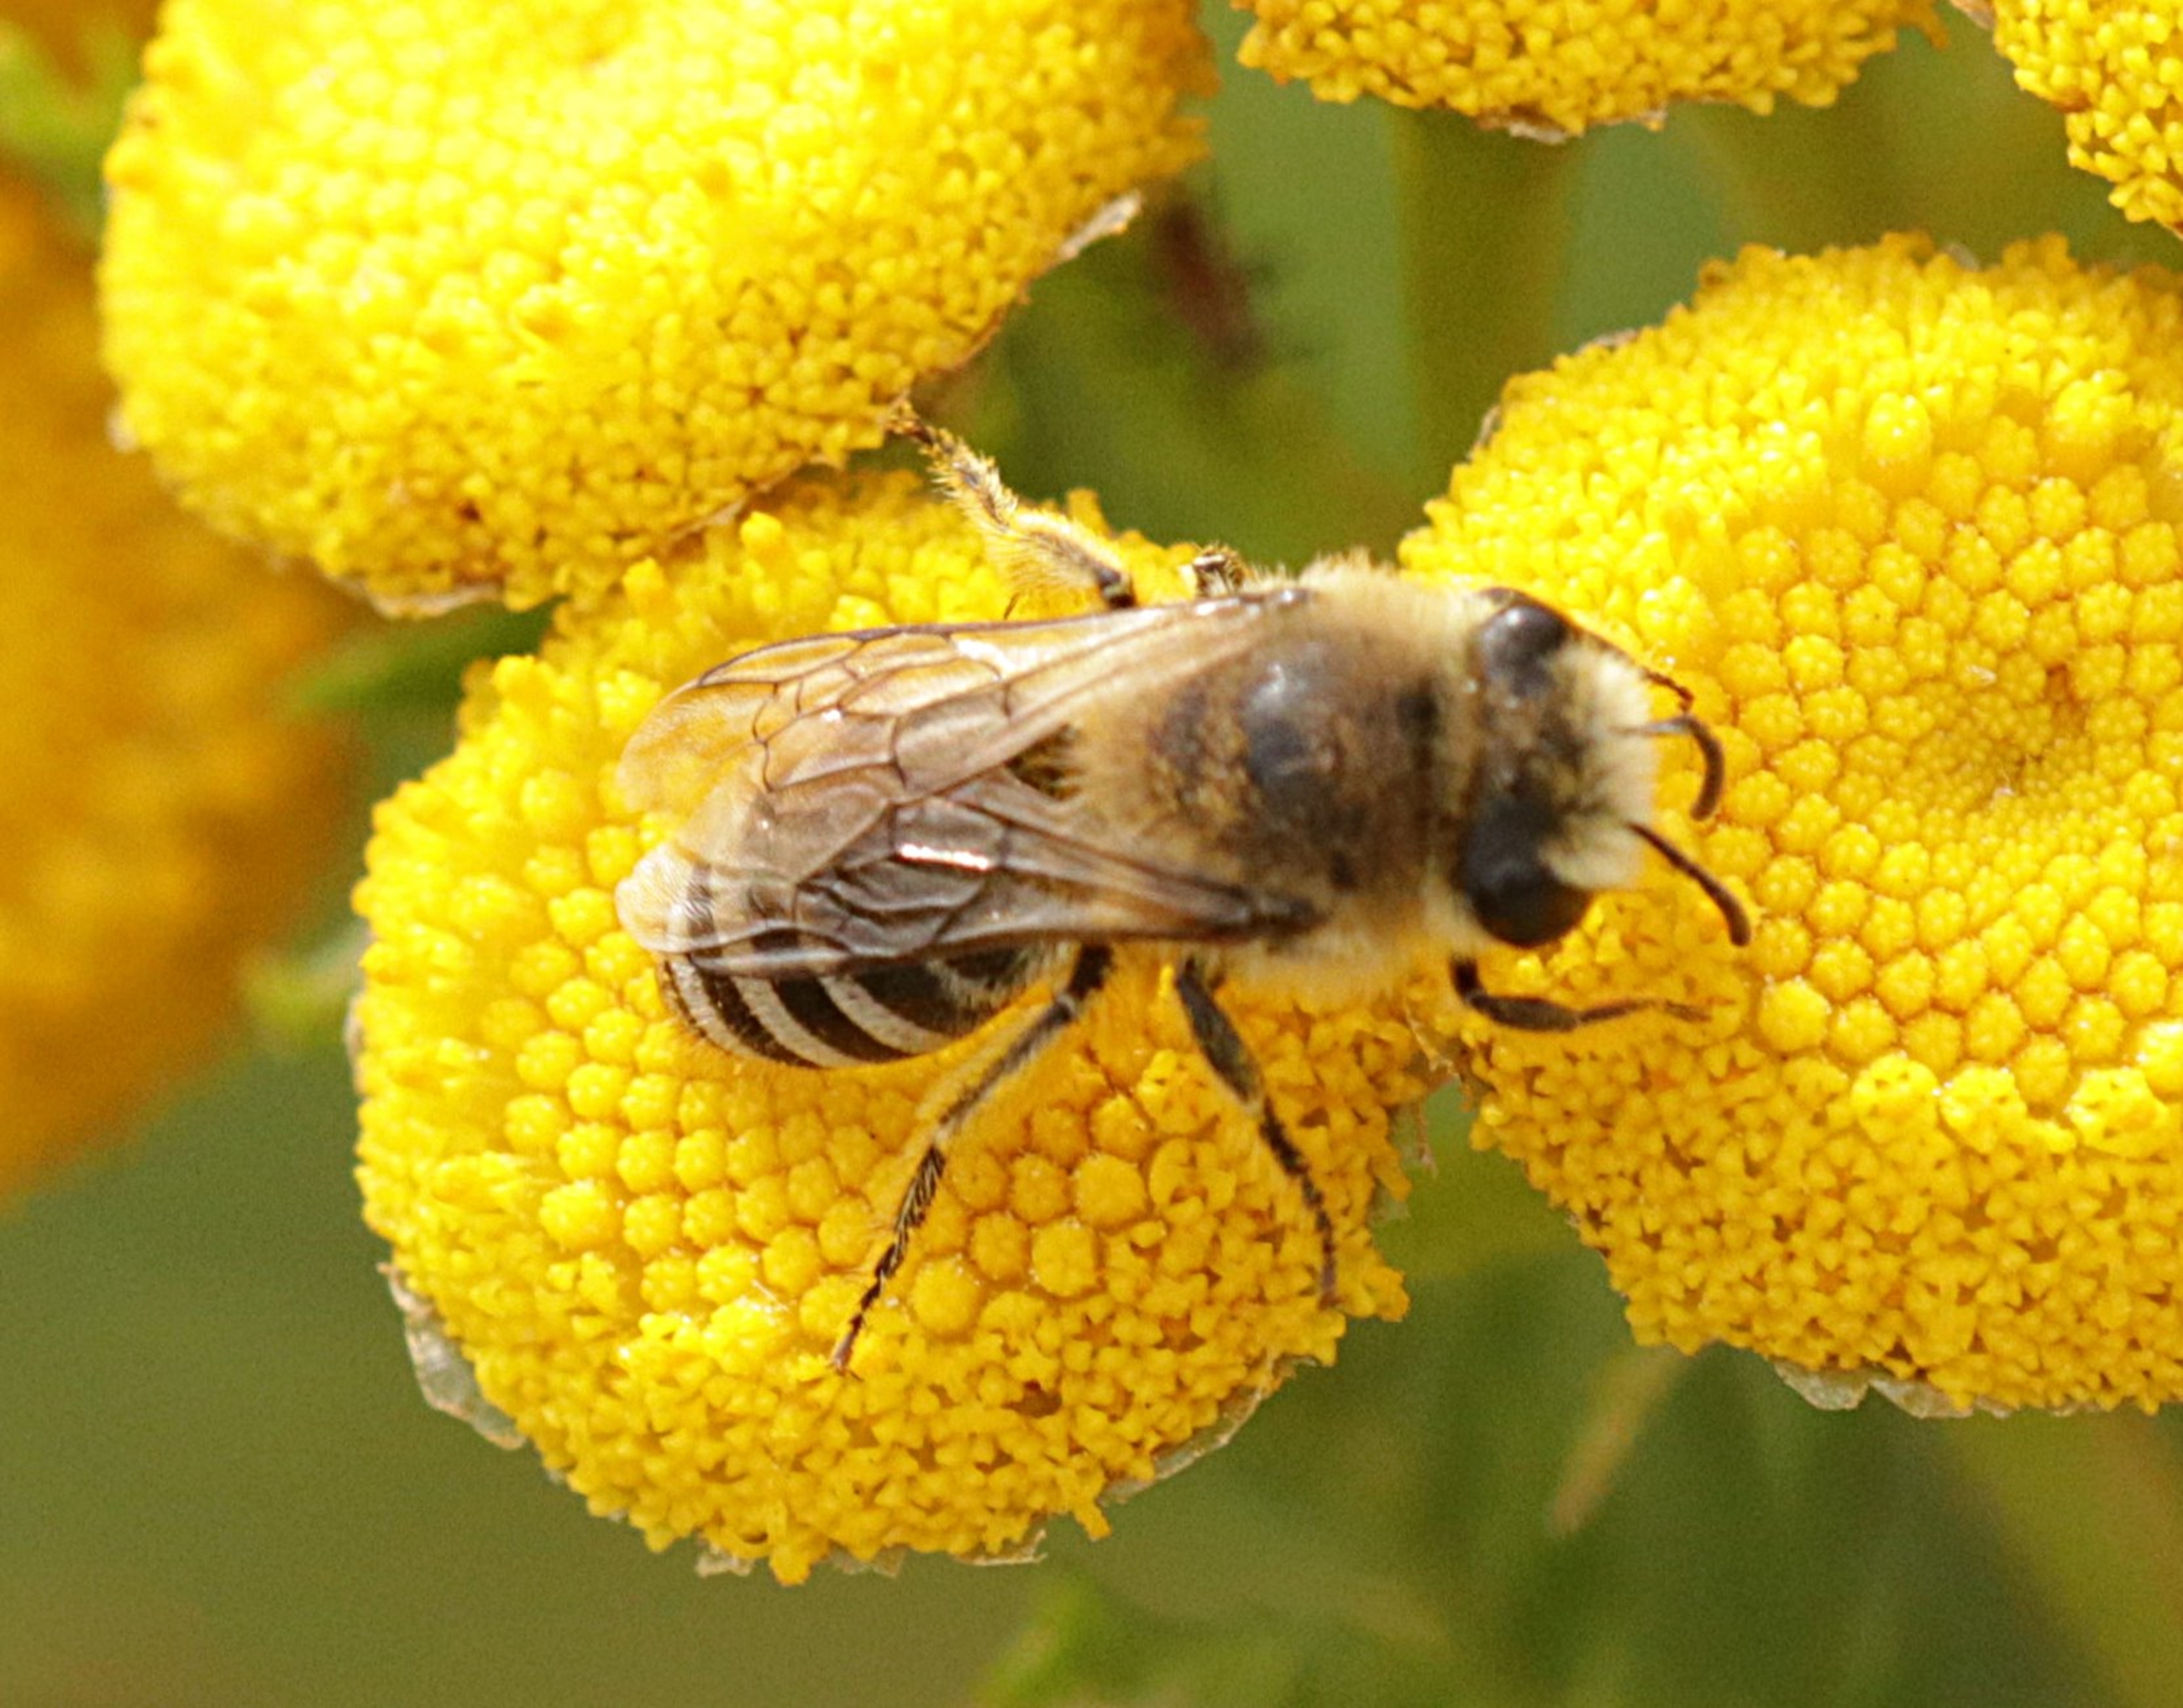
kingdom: Animalia
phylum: Arthropoda
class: Insecta
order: Hymenoptera
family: Colletidae
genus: Colletes
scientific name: Colletes
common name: Silkebier
